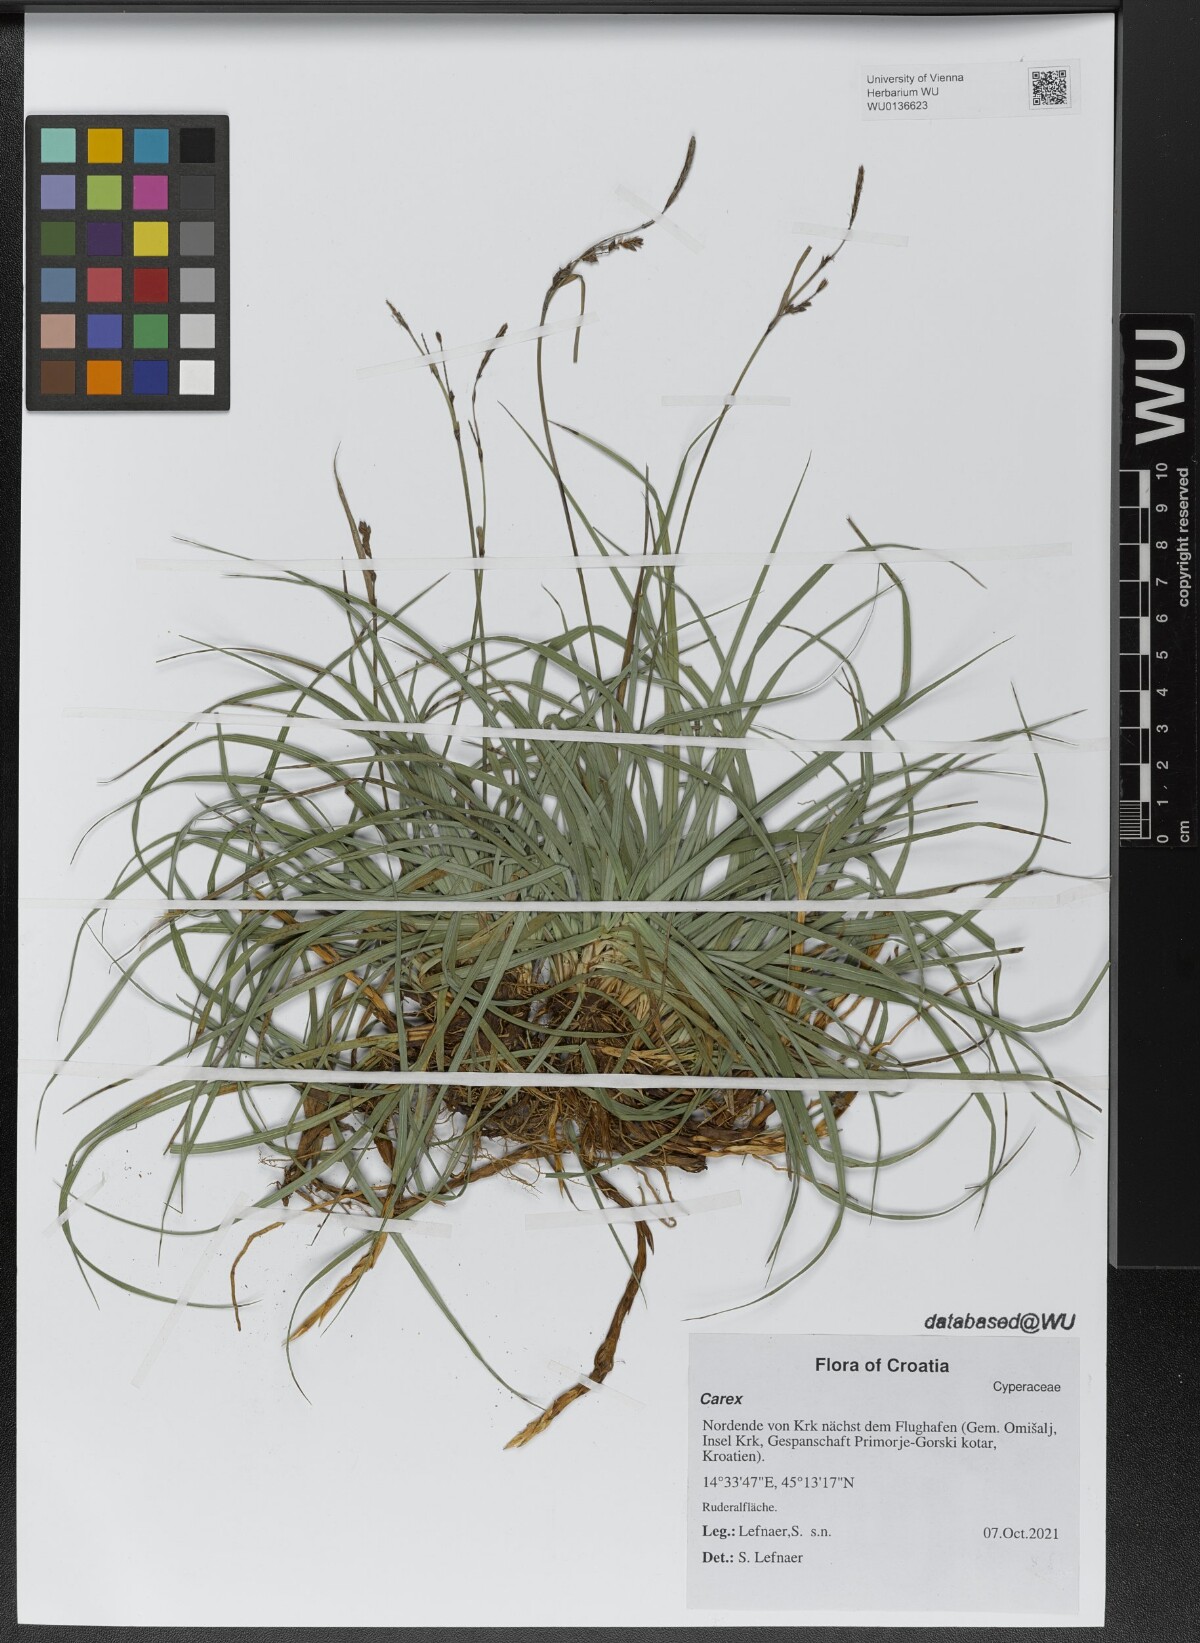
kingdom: Plantae
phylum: Tracheophyta
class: Liliopsida
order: Poales
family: Cyperaceae
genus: Carex
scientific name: Carex
